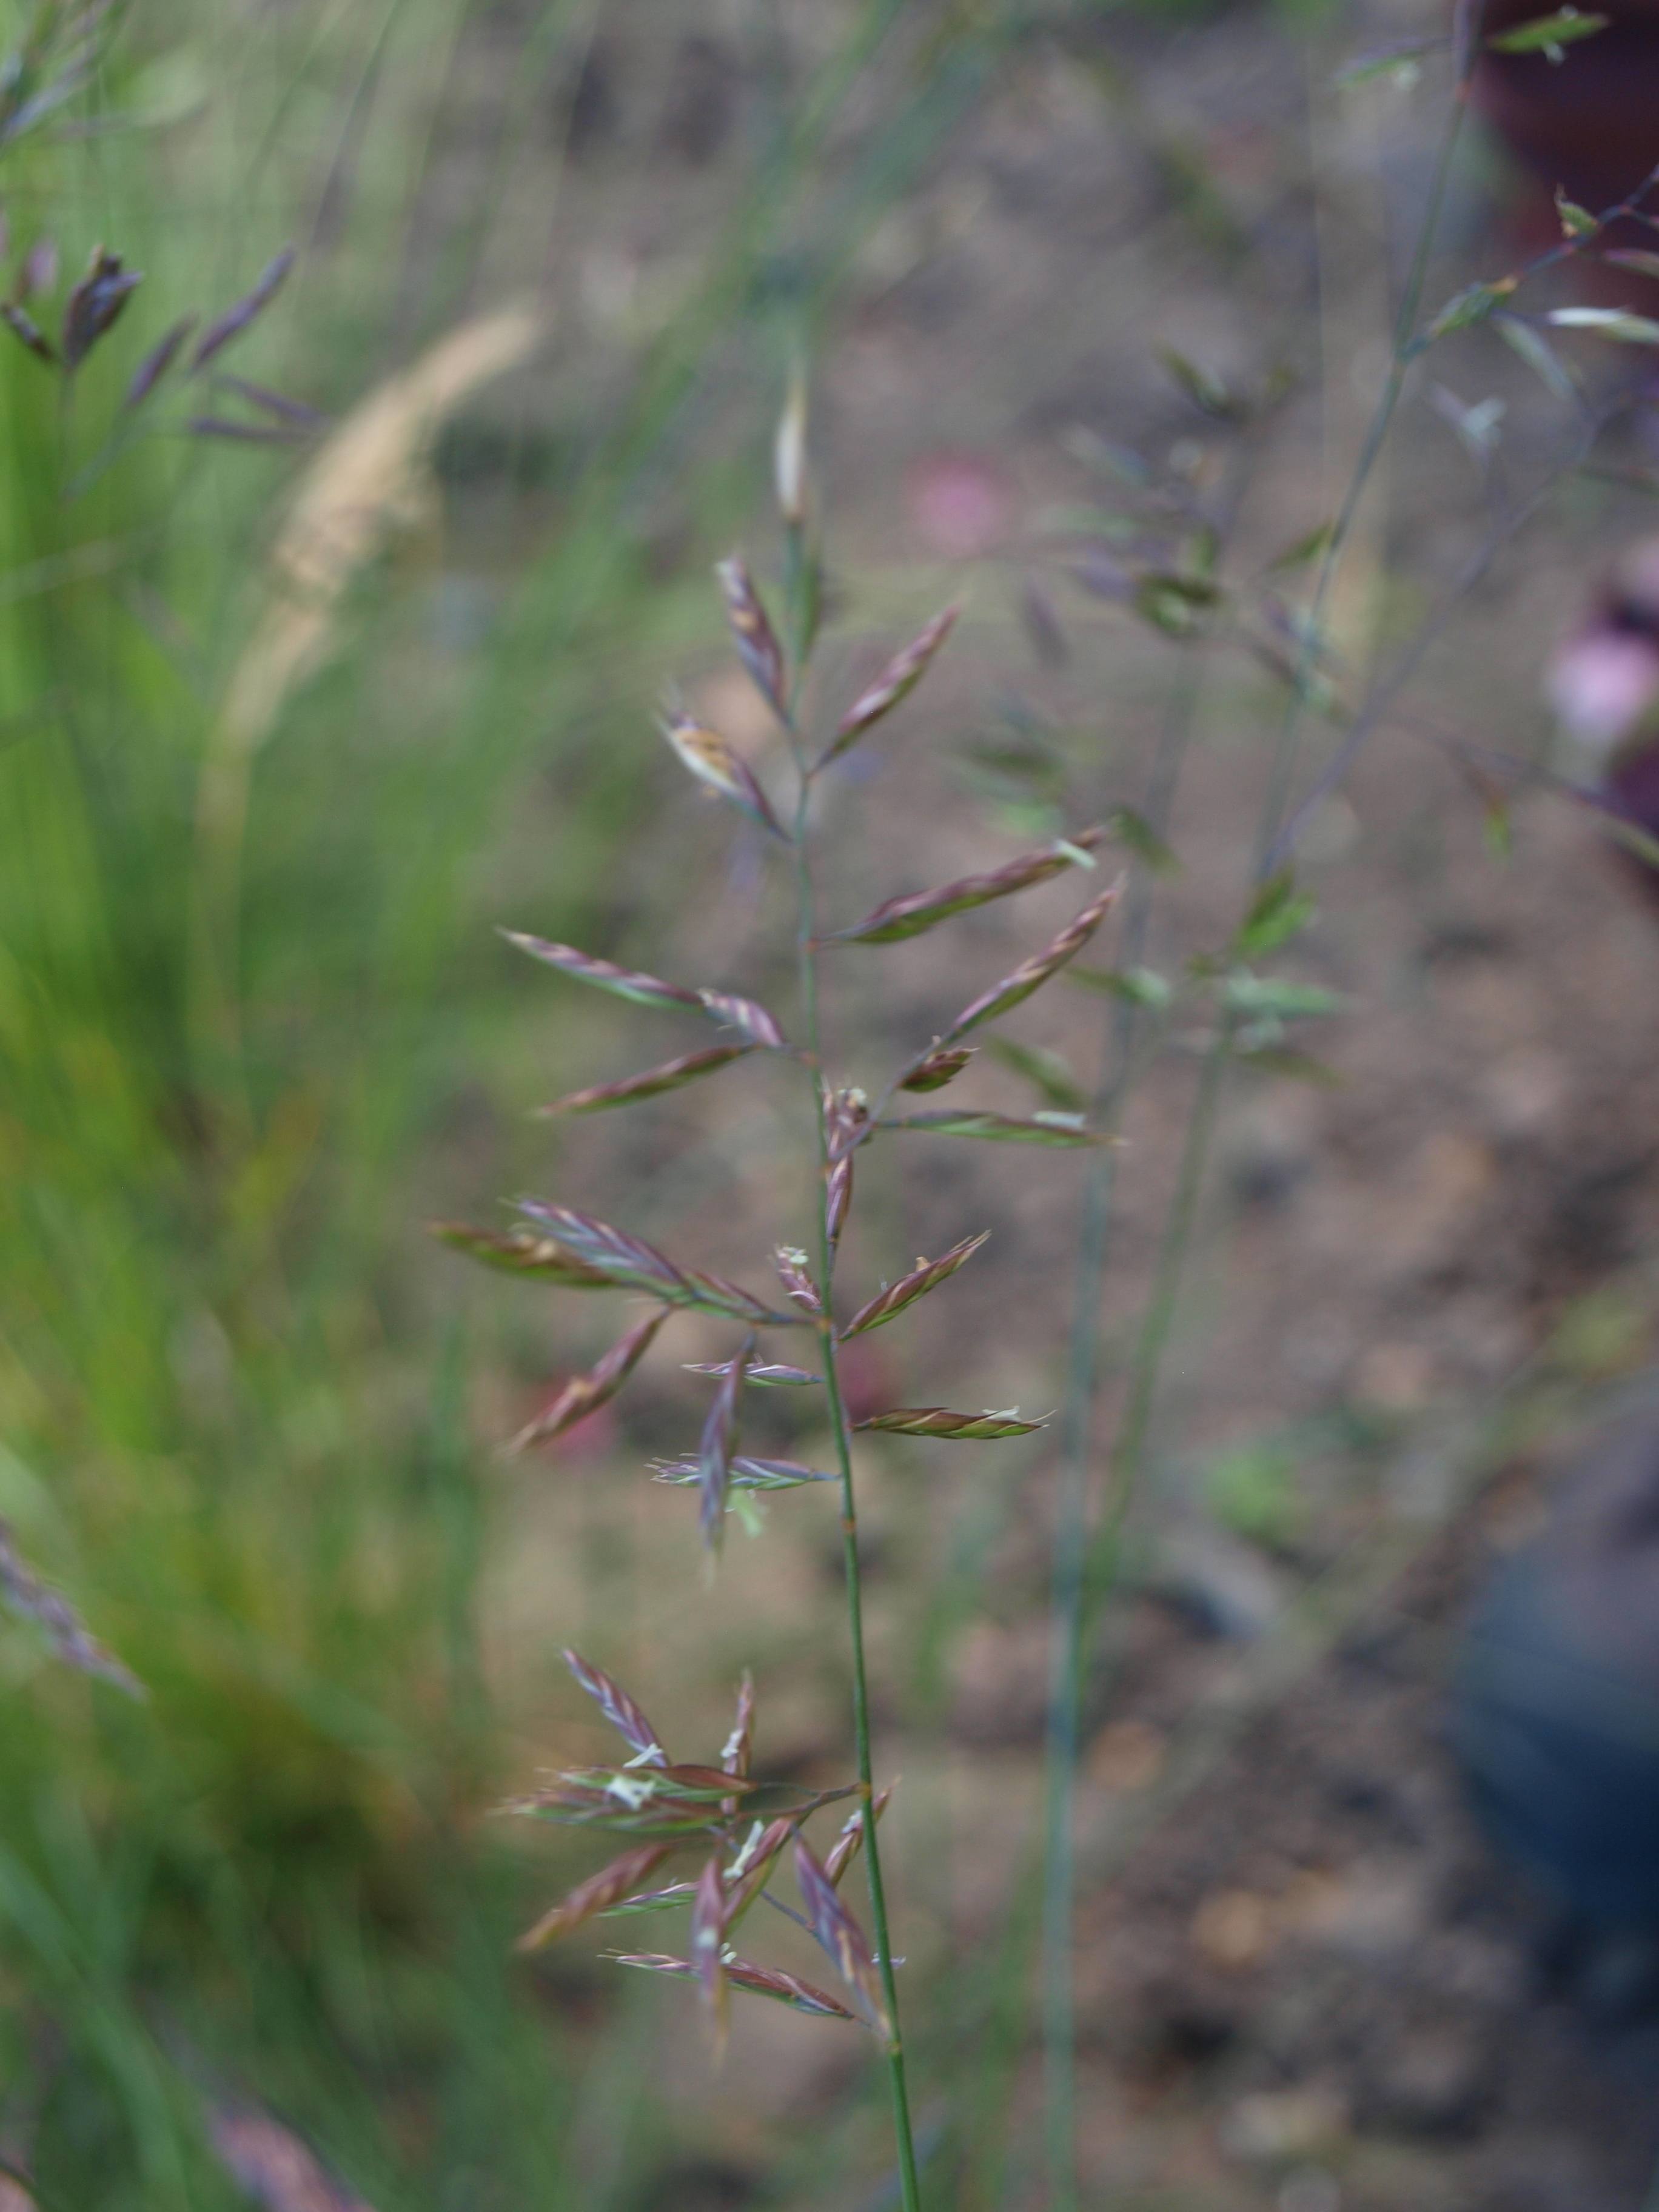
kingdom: Plantae
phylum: Tracheophyta
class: Liliopsida
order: Poales
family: Poaceae
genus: Festuca
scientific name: Festuca rubra
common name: Red fescue
